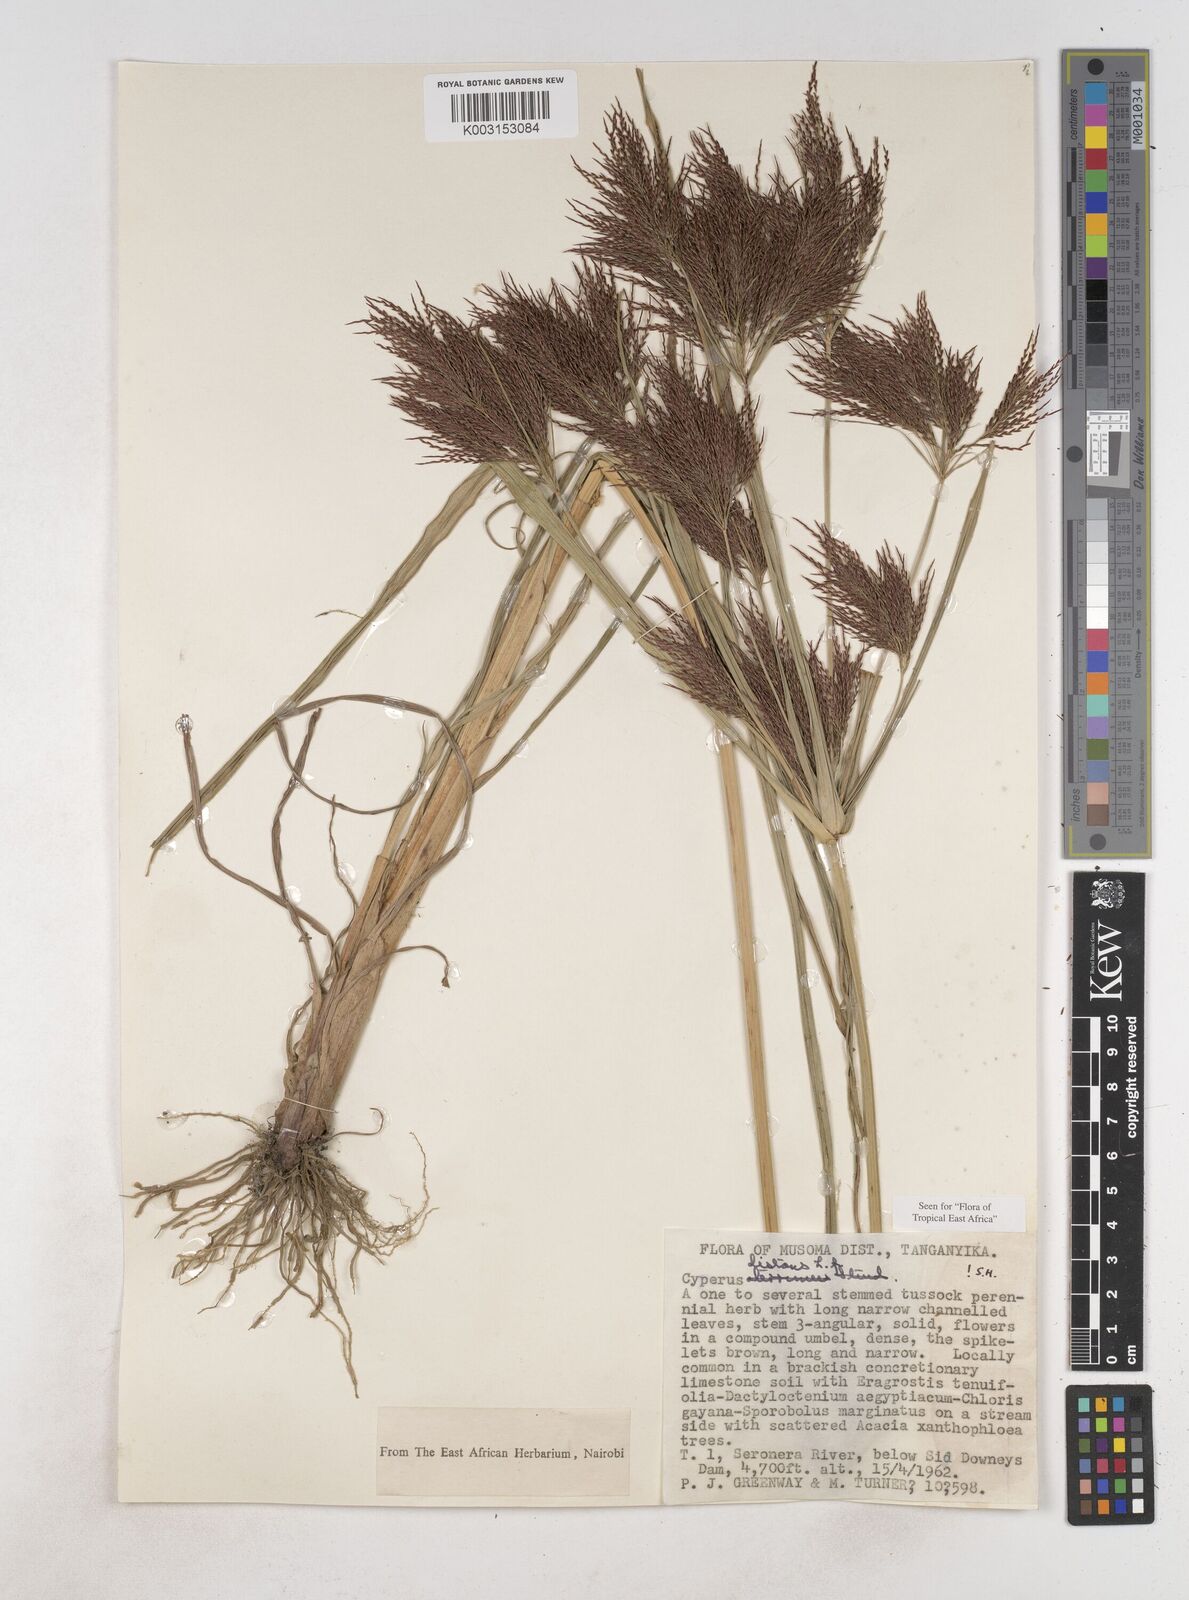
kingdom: Plantae
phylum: Tracheophyta
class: Liliopsida
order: Poales
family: Cyperaceae
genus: Cyperus
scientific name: Cyperus distans
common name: Slender cyperus
